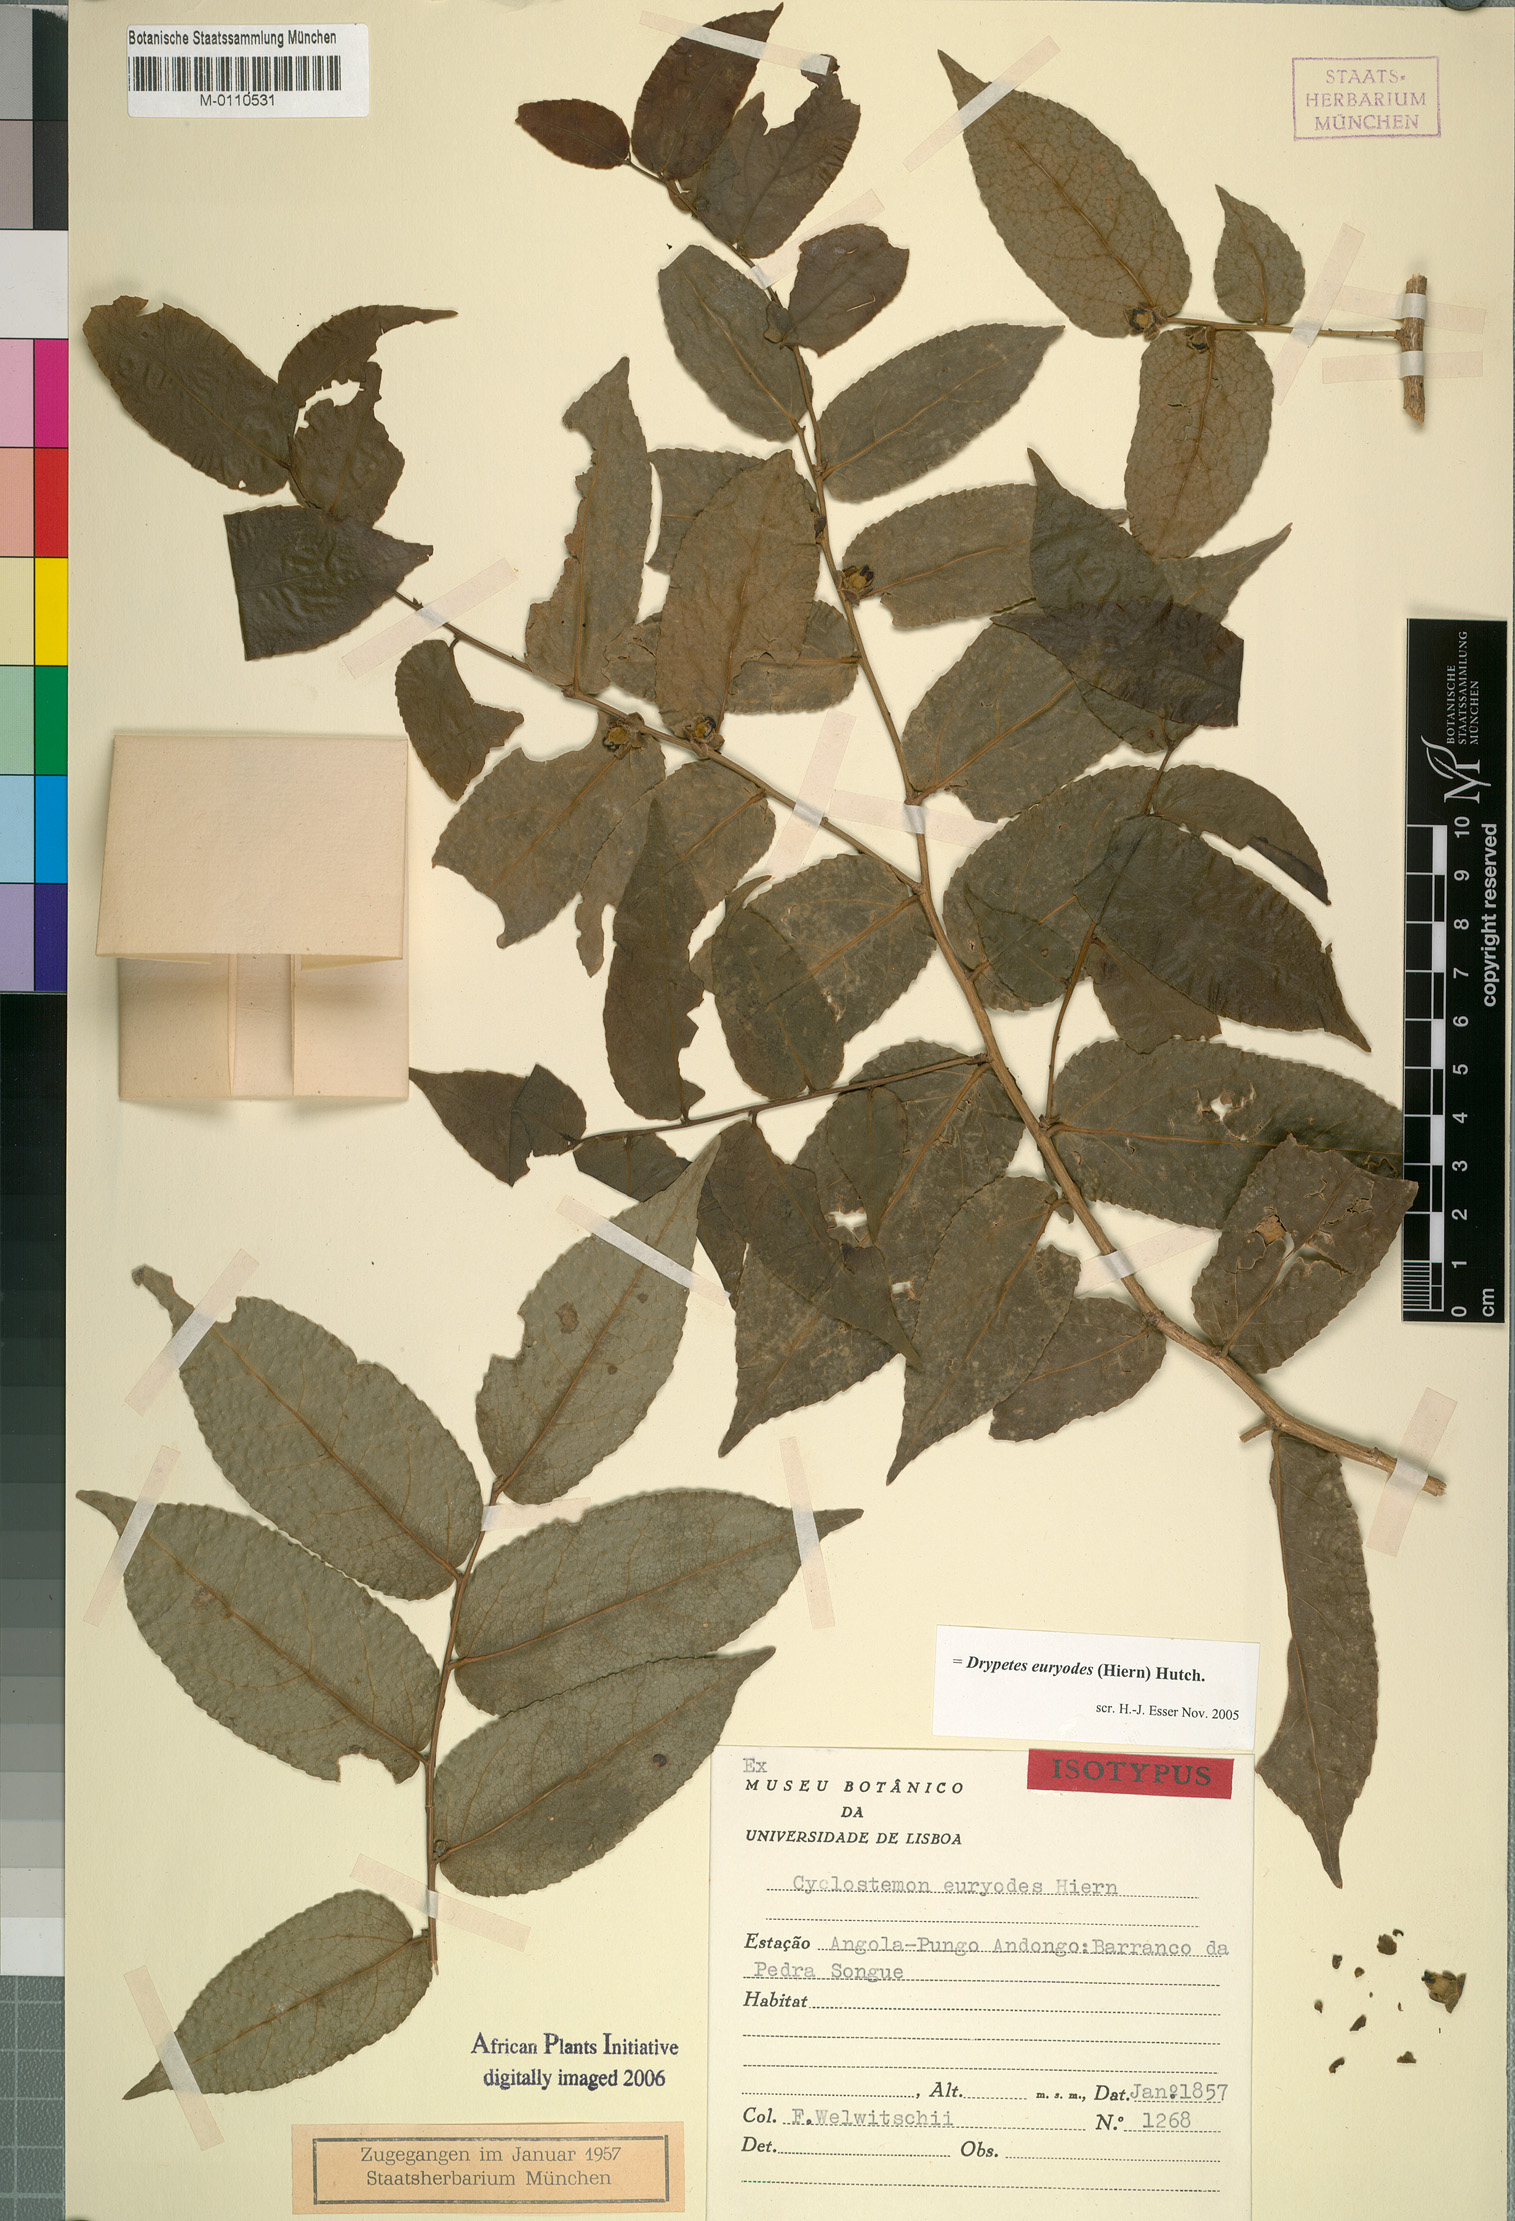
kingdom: Plantae
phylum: Tracheophyta
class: Magnoliopsida
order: Malpighiales
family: Putranjivaceae
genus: Drypetes
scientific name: Drypetes euryodes
